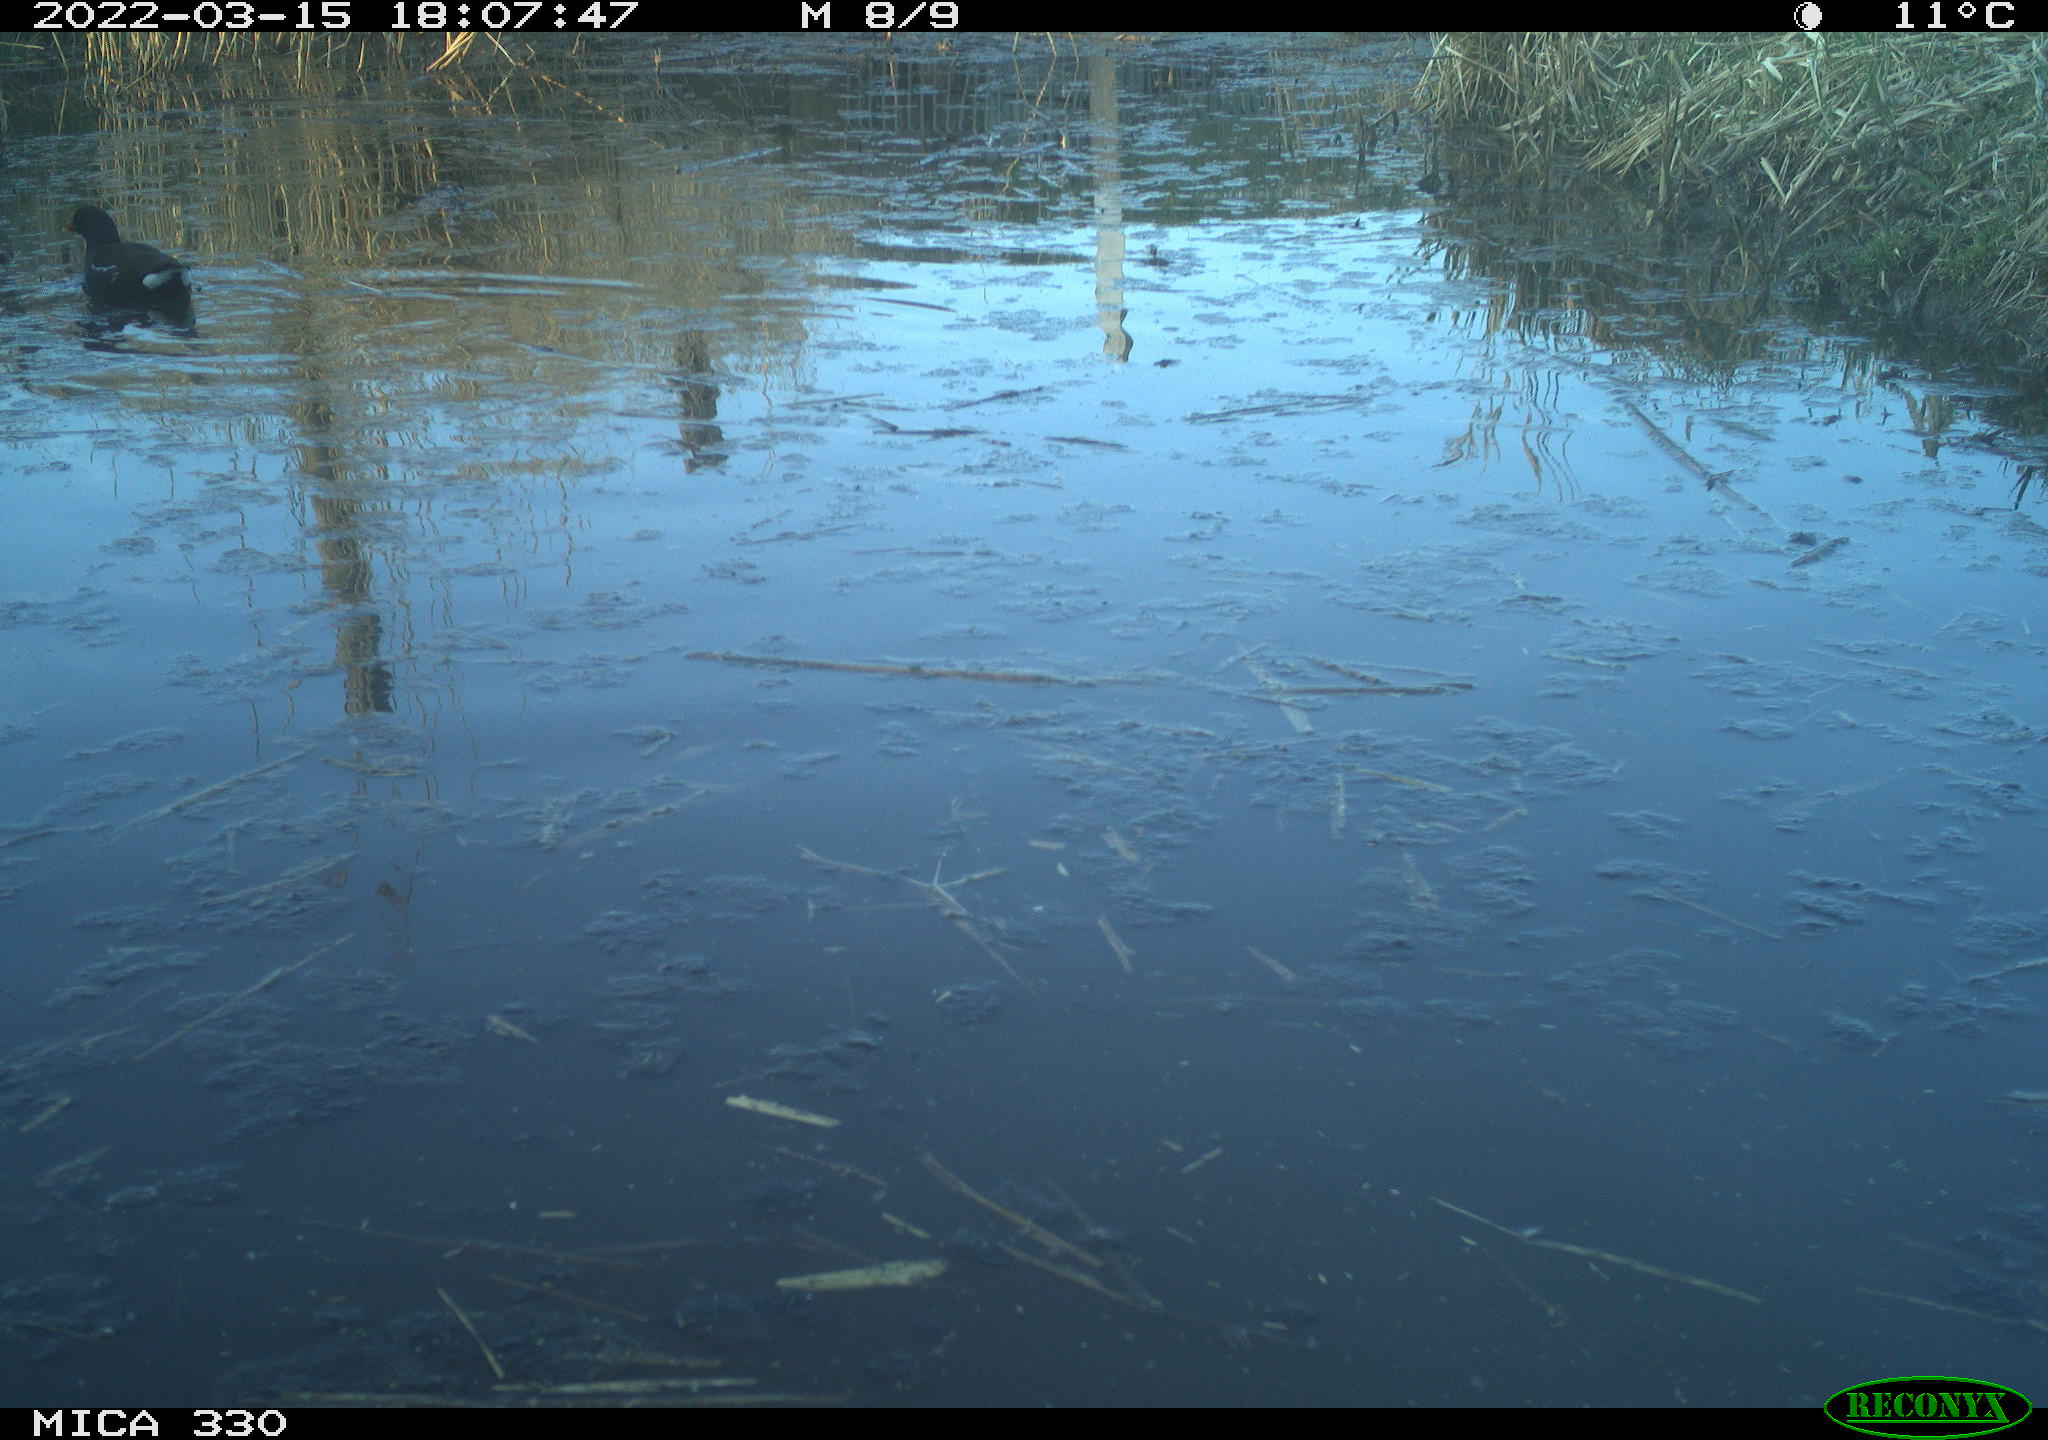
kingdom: Animalia
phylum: Chordata
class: Aves
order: Gruiformes
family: Rallidae
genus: Gallinula
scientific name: Gallinula chloropus
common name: Common moorhen
